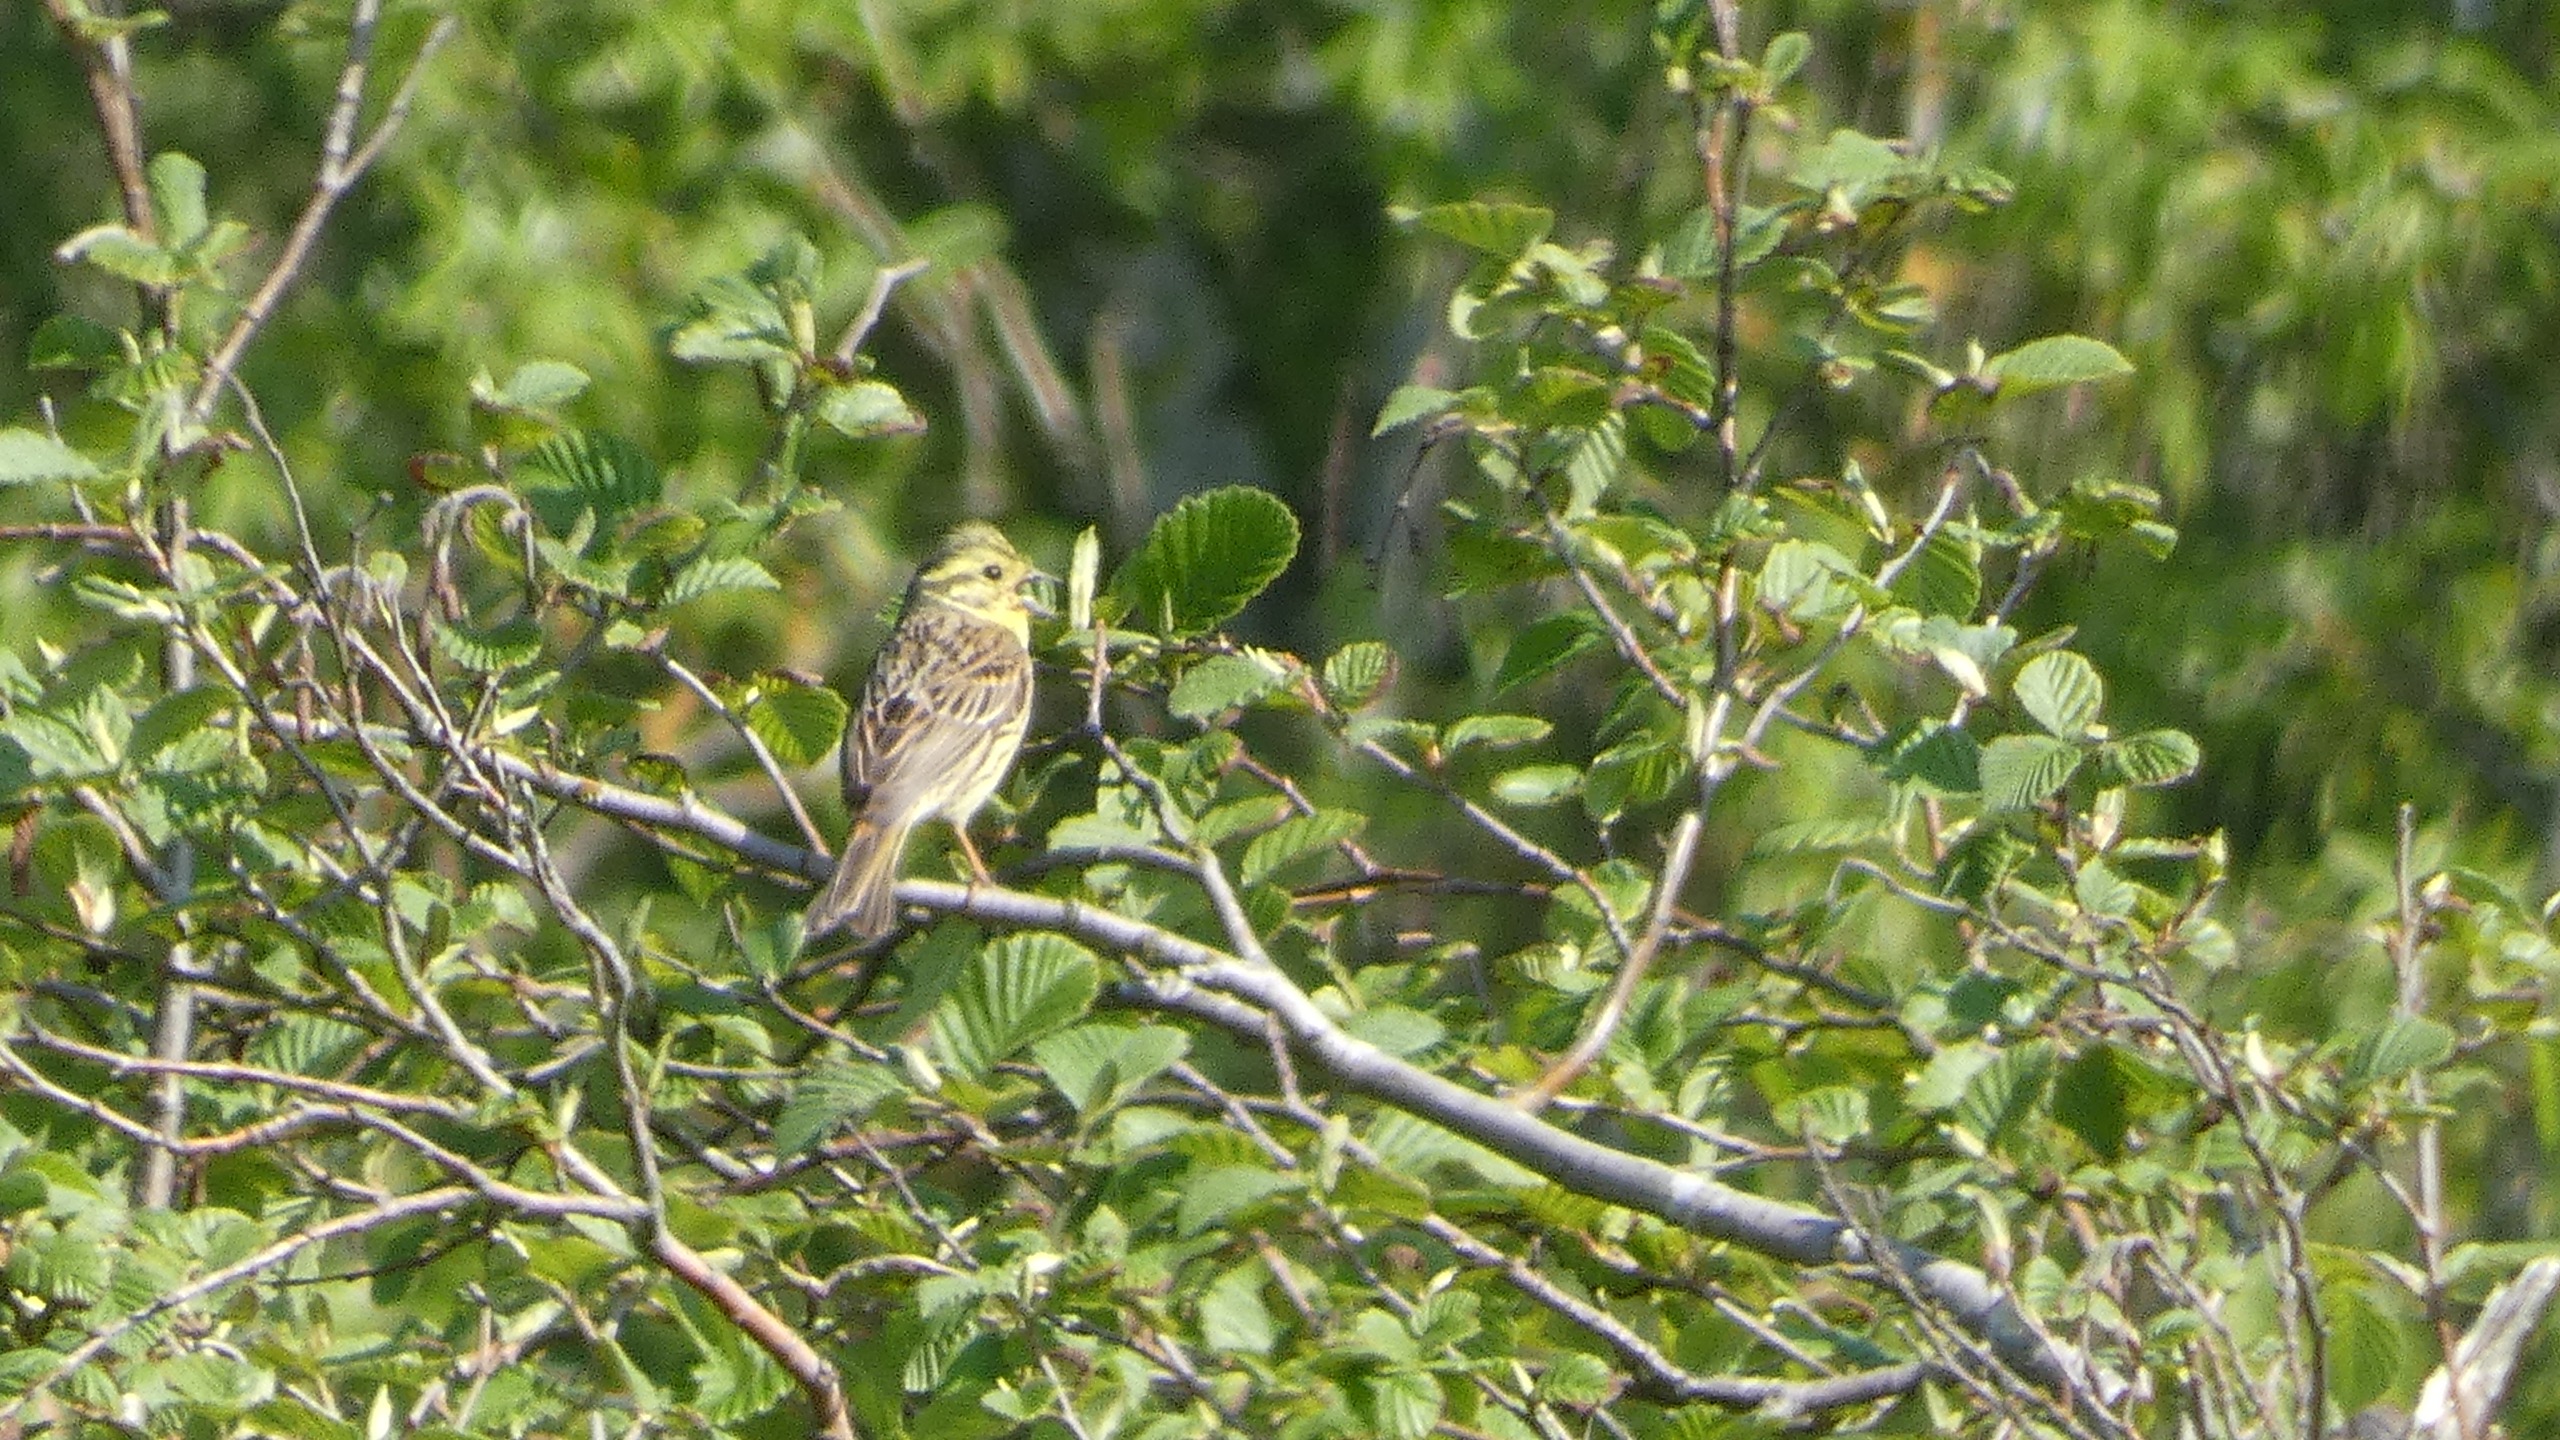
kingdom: Animalia
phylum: Chordata
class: Aves
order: Passeriformes
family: Emberizidae
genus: Emberiza
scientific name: Emberiza citrinella
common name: Gulspurv
